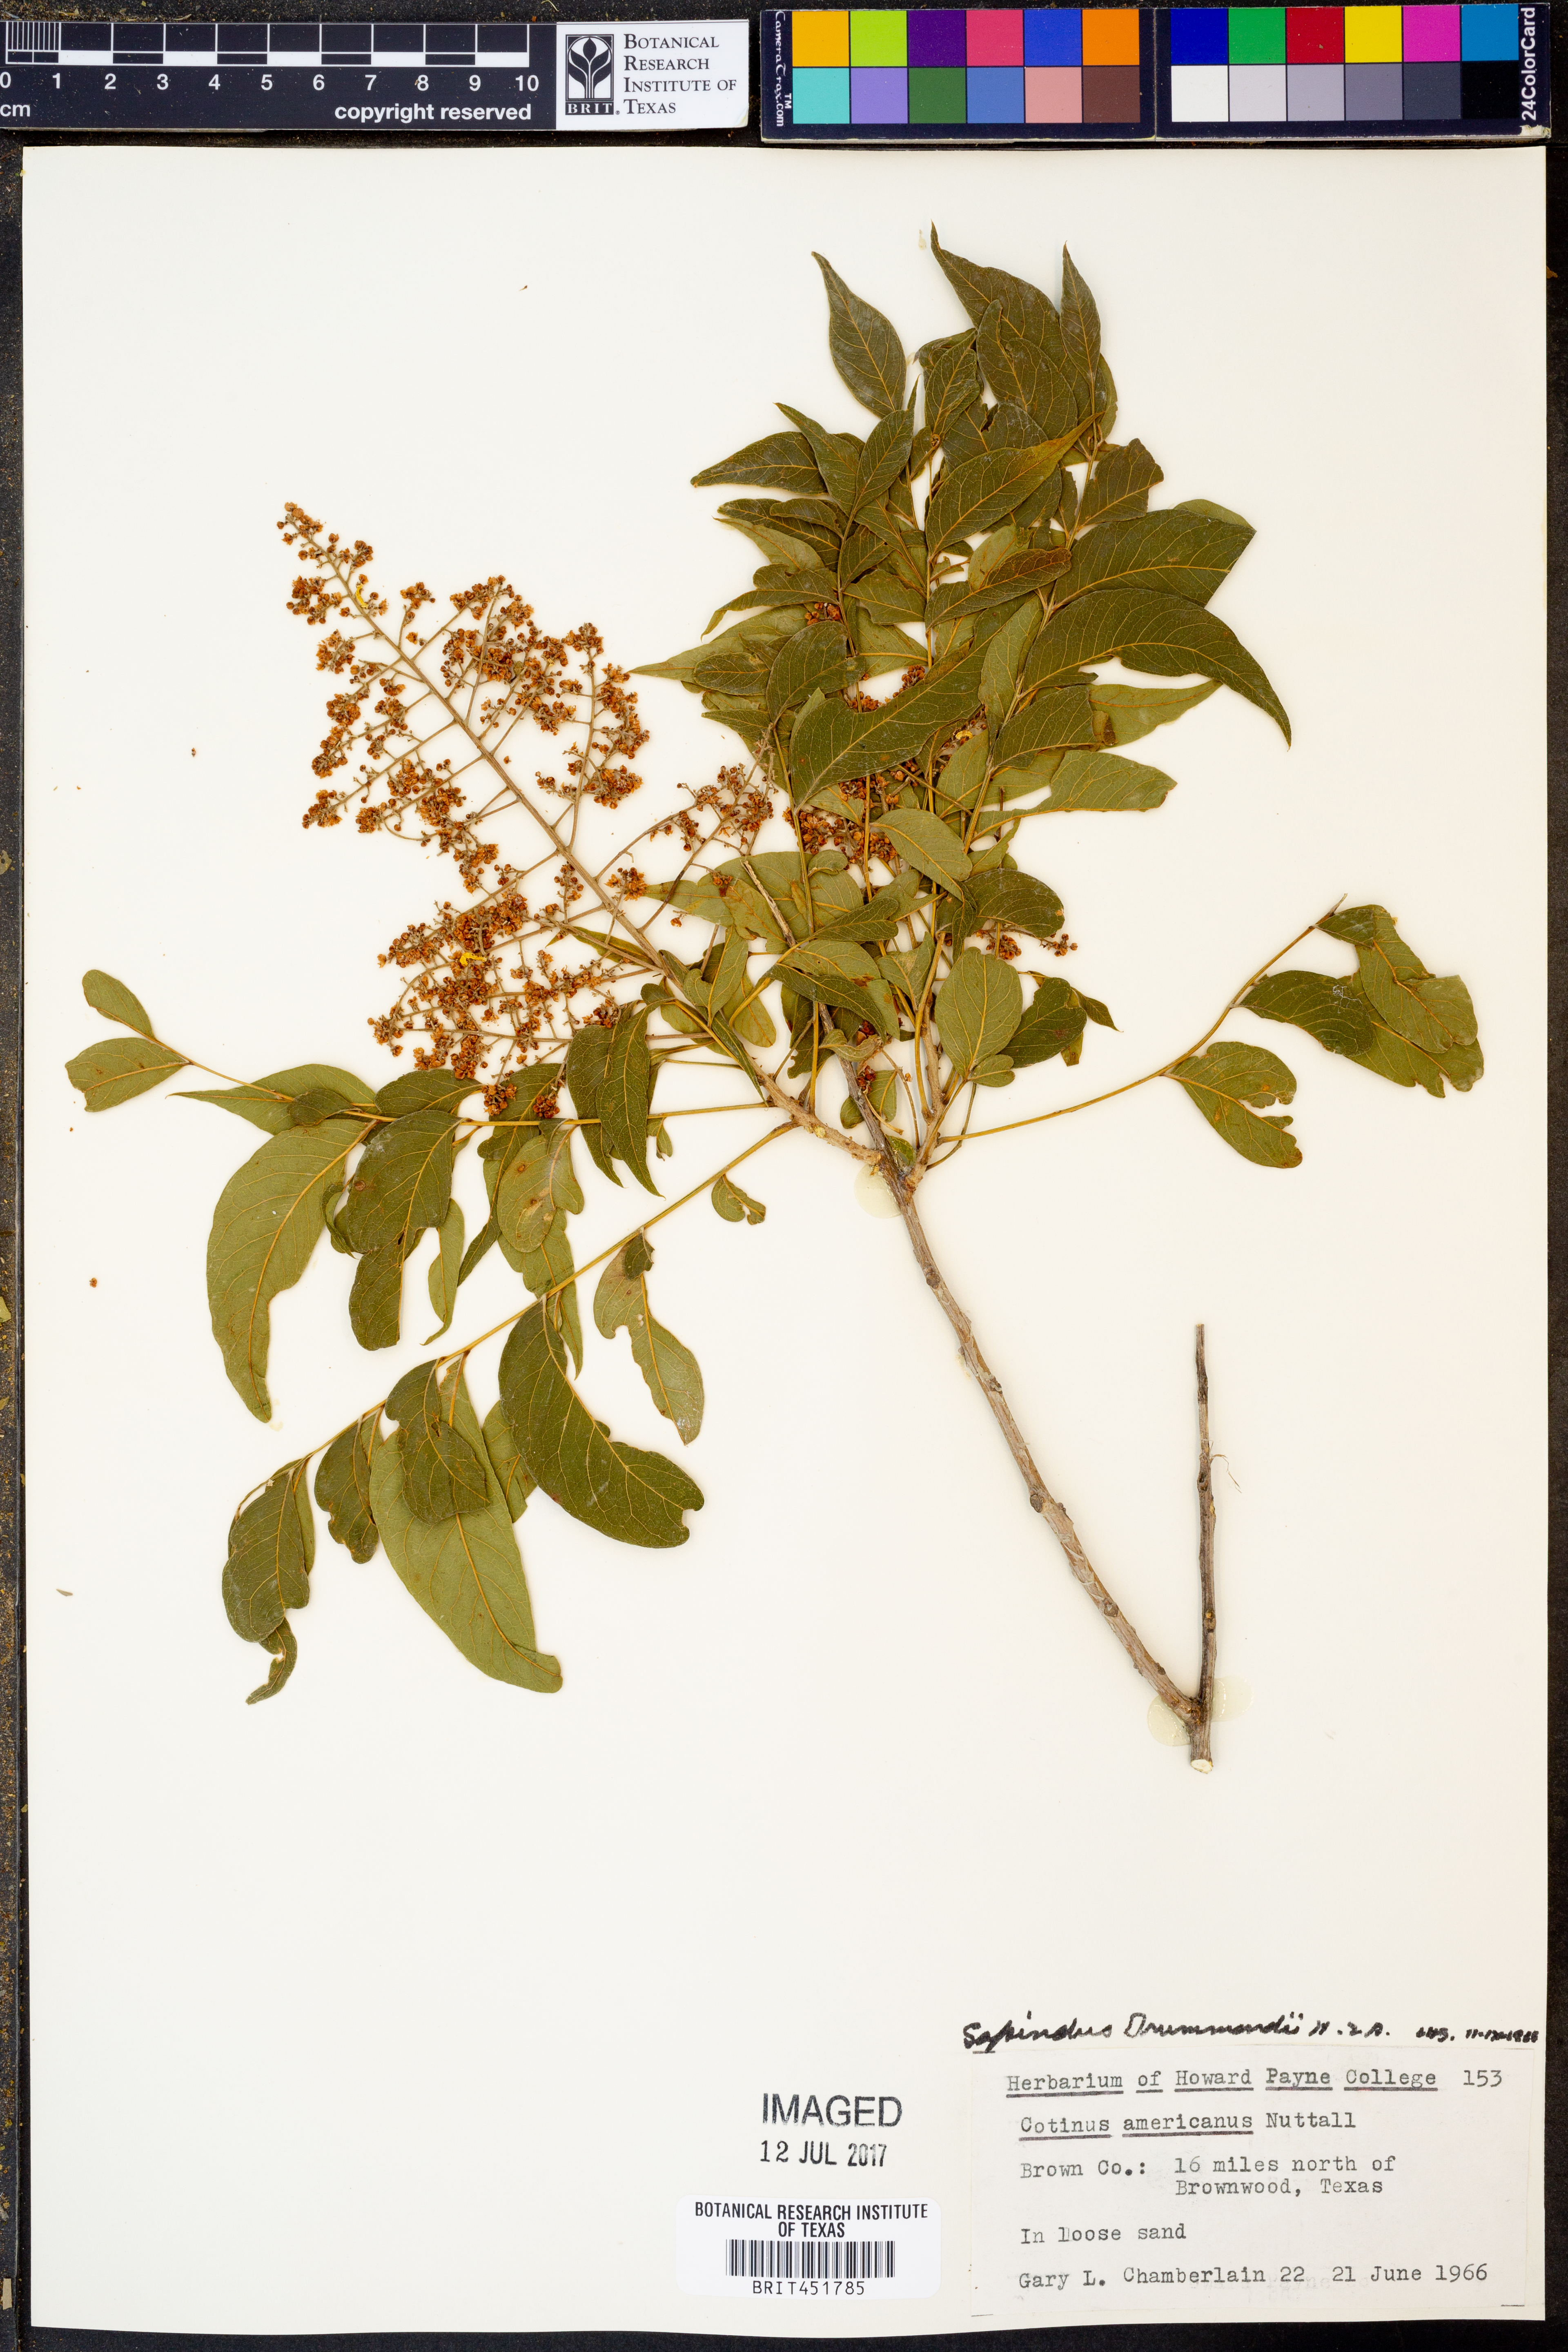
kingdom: Plantae
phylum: Tracheophyta
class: Magnoliopsida
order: Sapindales
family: Sapindaceae
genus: Sapindus
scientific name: Sapindus drummondii
